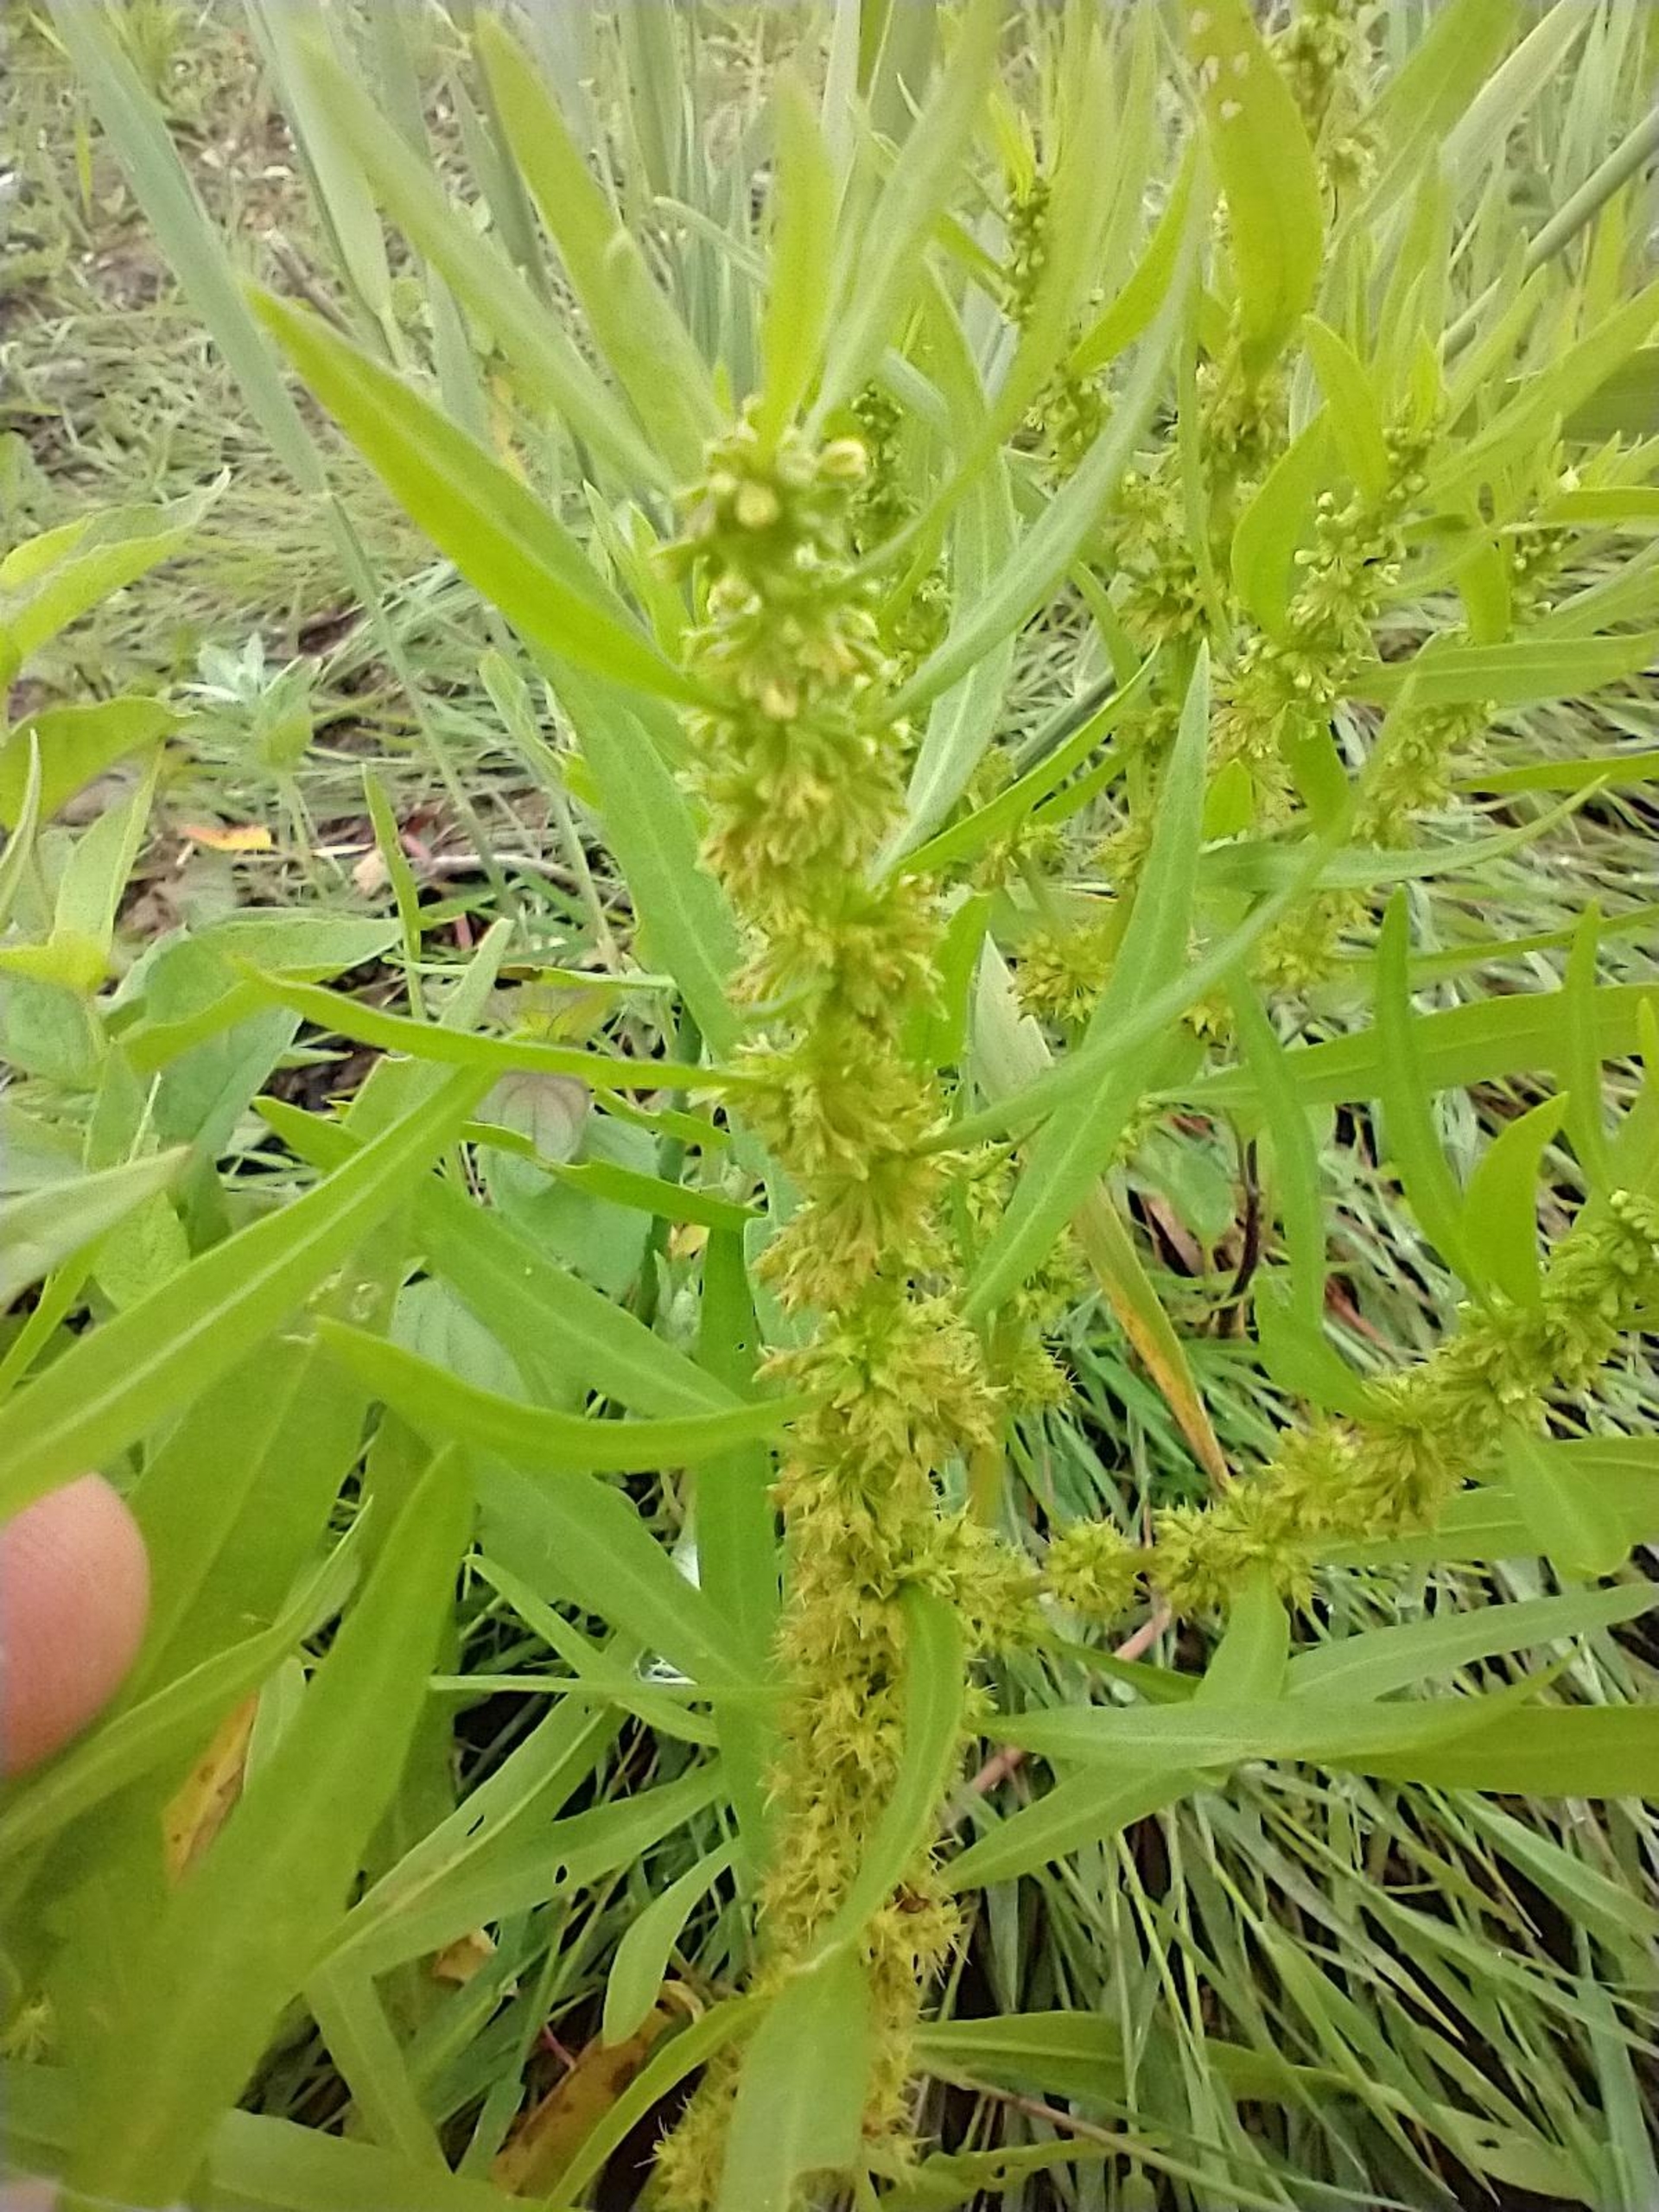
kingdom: Plantae
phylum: Tracheophyta
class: Magnoliopsida
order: Caryophyllales
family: Polygonaceae
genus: Rumex
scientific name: Rumex maritimus
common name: Strand-skræppe
